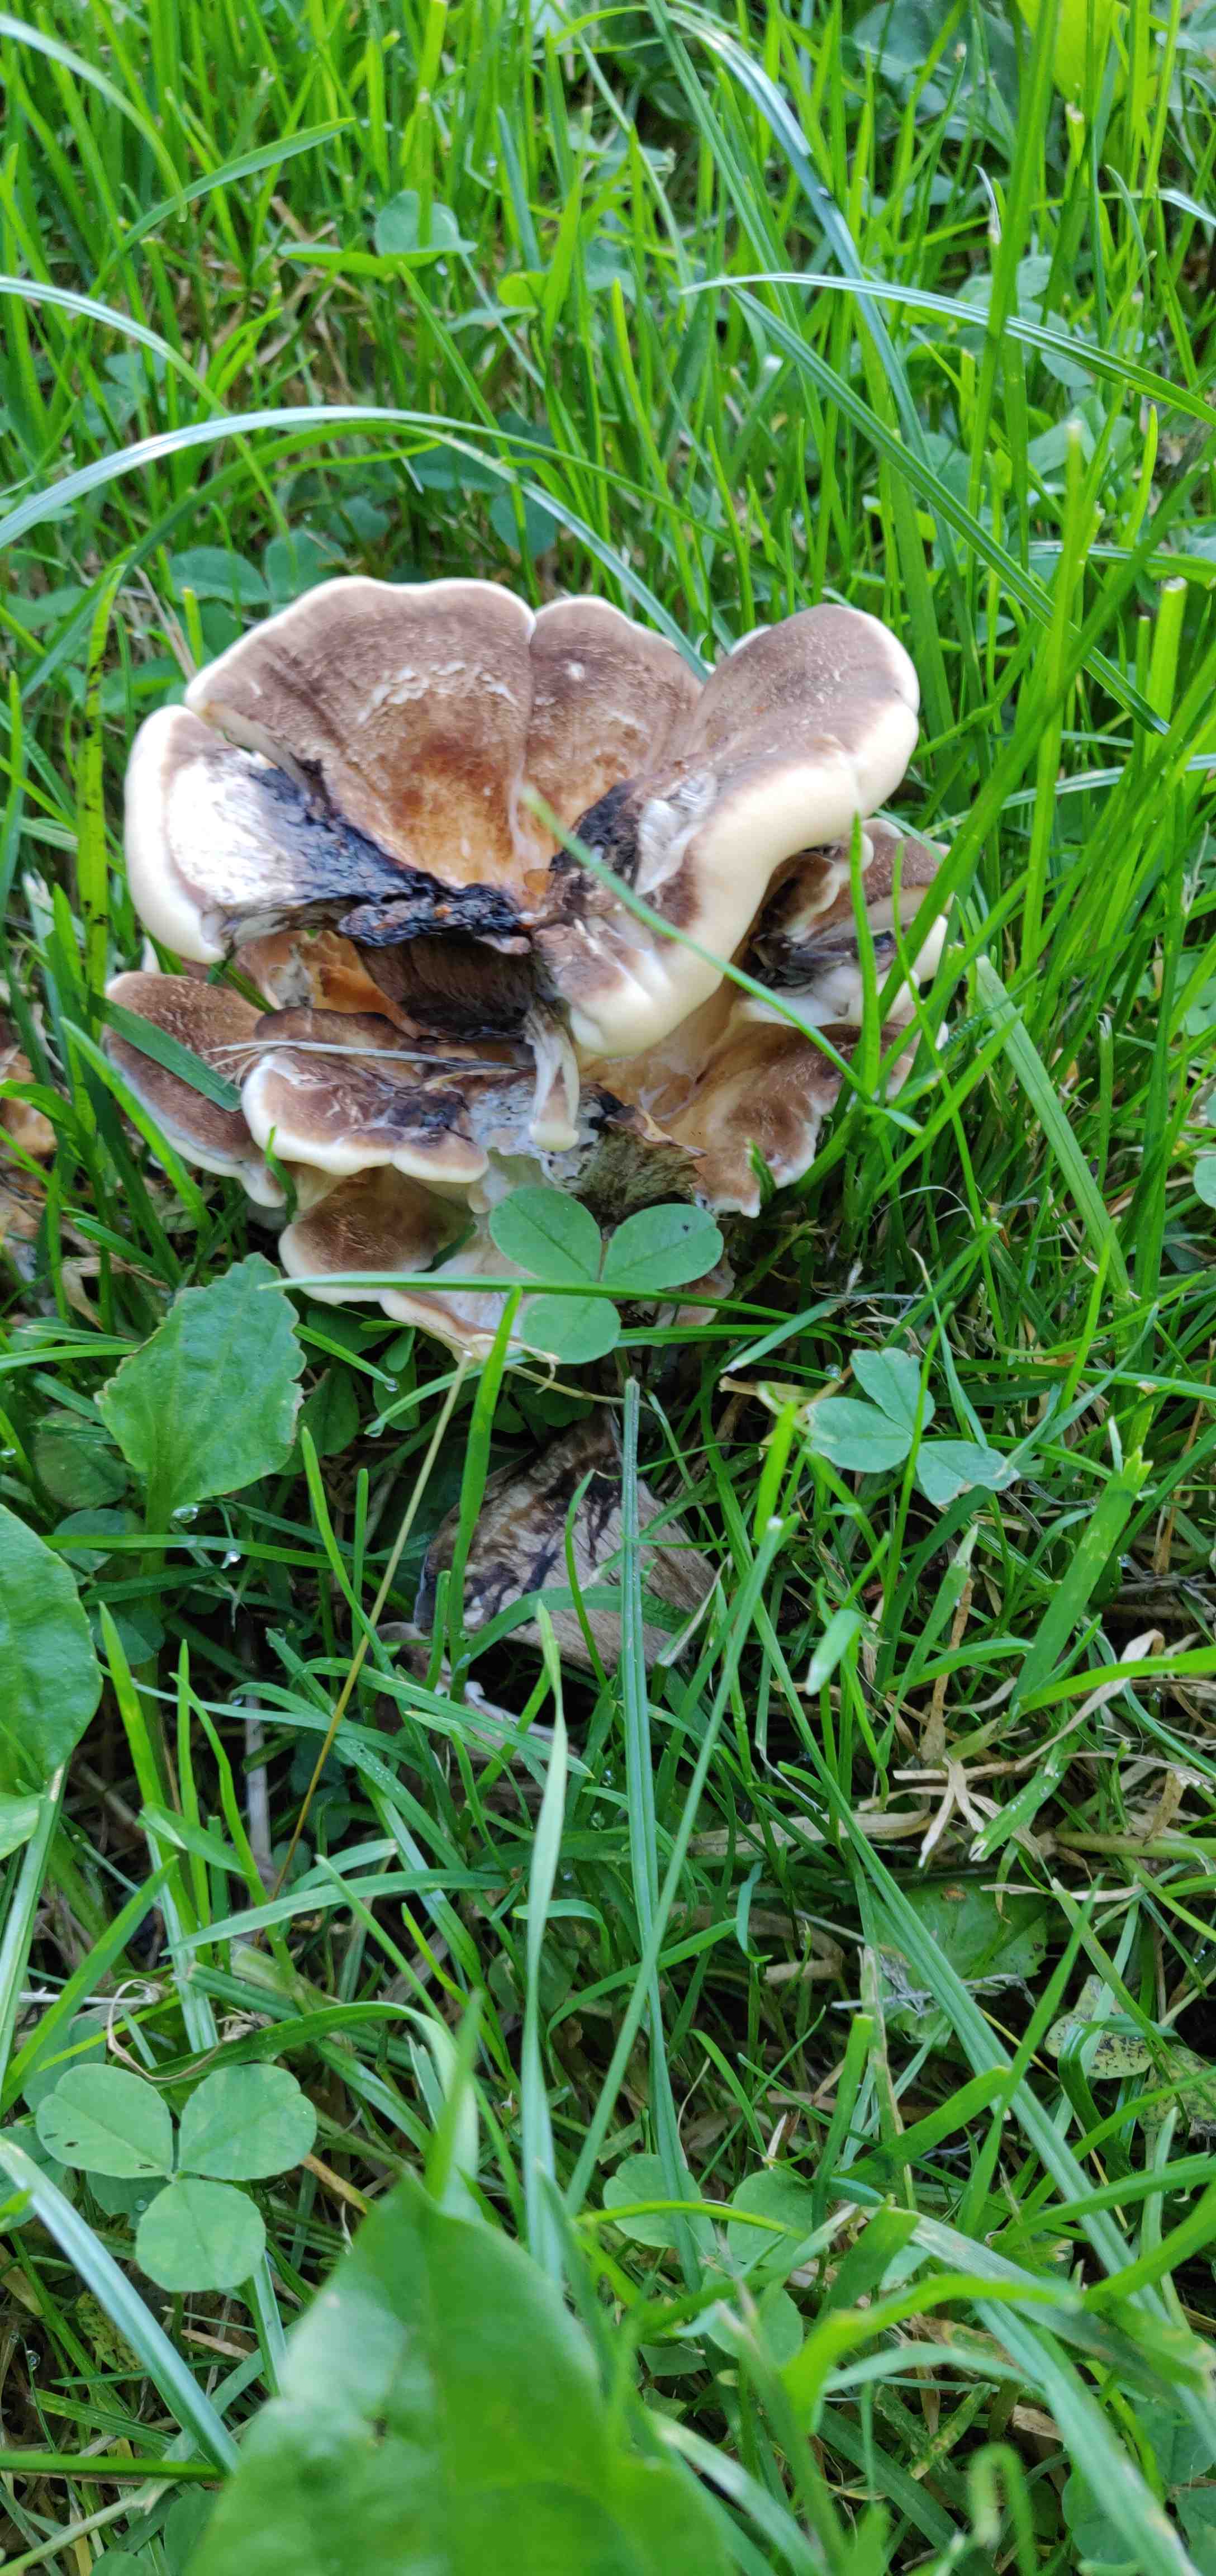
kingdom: Fungi
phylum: Basidiomycota
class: Agaricomycetes
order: Polyporales
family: Meripilaceae
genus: Meripilus
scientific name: Meripilus giganteus
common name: kæmpeporesvamp
